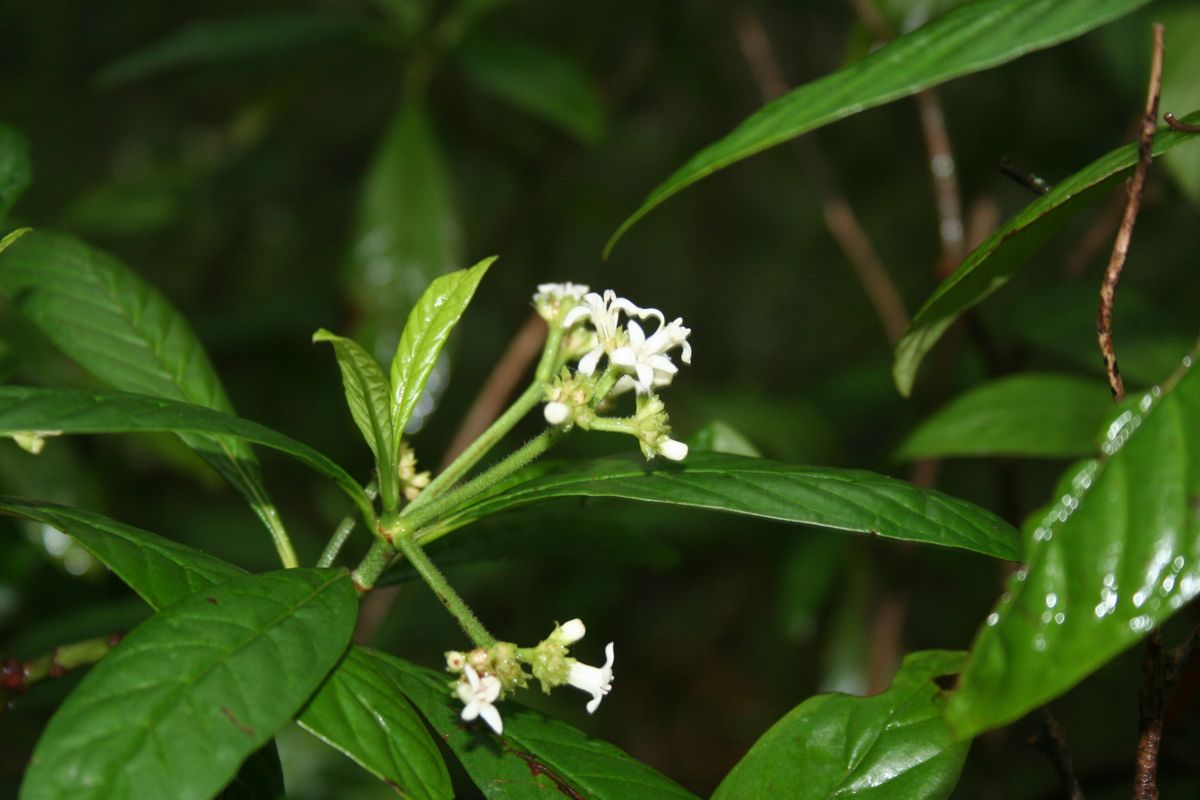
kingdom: Plantae
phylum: Tracheophyta
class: Magnoliopsida
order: Gentianales
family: Rubiaceae
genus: Psychotria
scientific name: Psychotria jinotegensis
